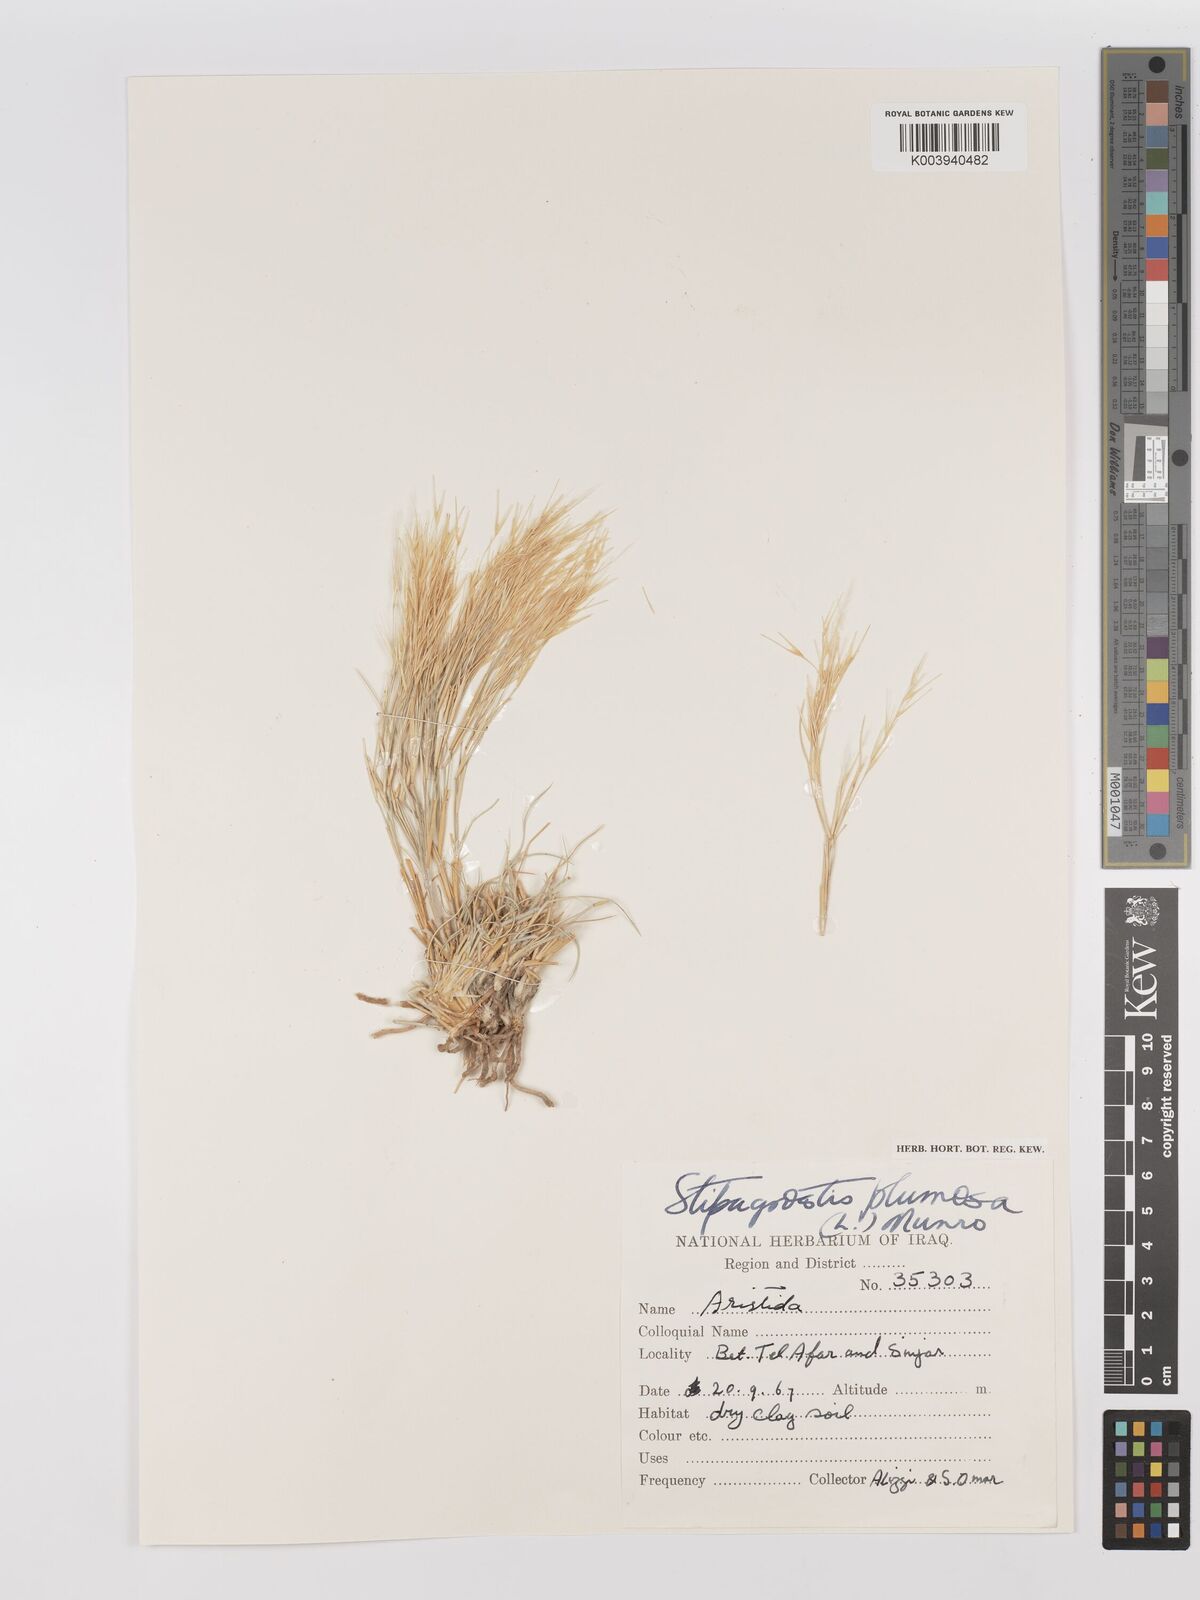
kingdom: Plantae
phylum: Tracheophyta
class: Liliopsida
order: Poales
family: Poaceae
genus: Stipagrostis
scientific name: Stipagrostis plumosa
